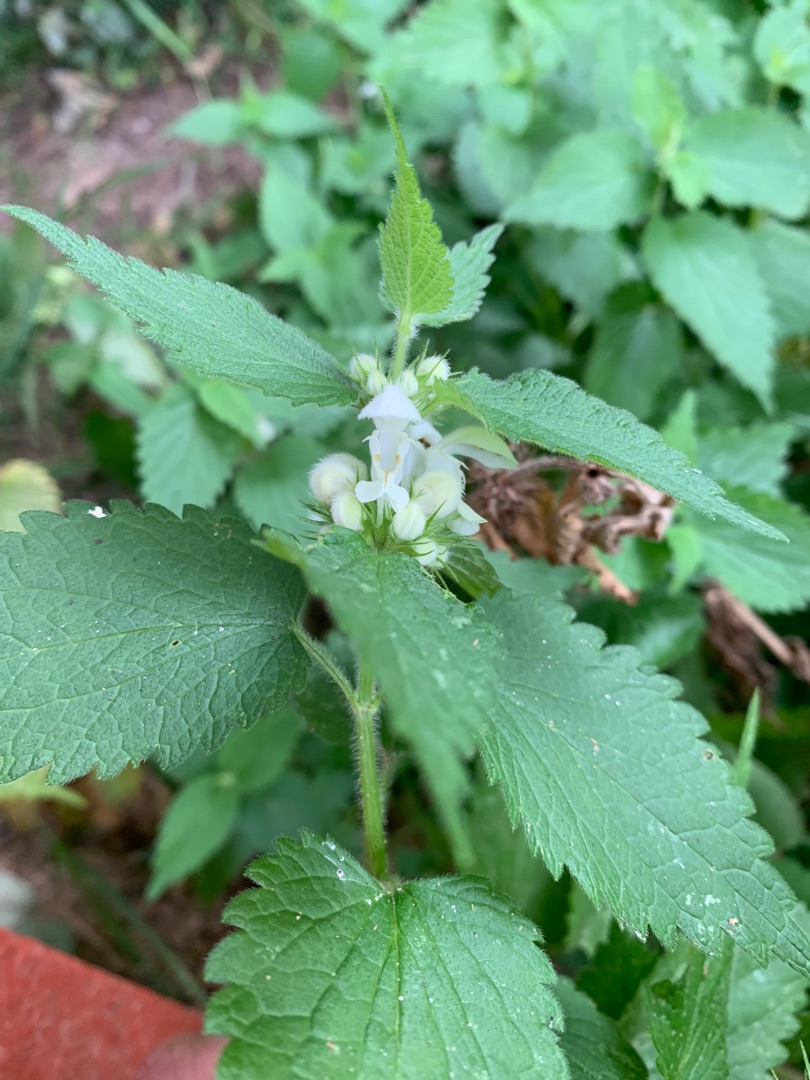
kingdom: Plantae
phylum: Tracheophyta
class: Magnoliopsida
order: Lamiales
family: Lamiaceae
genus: Lamium
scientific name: Lamium album
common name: Døvnælde
